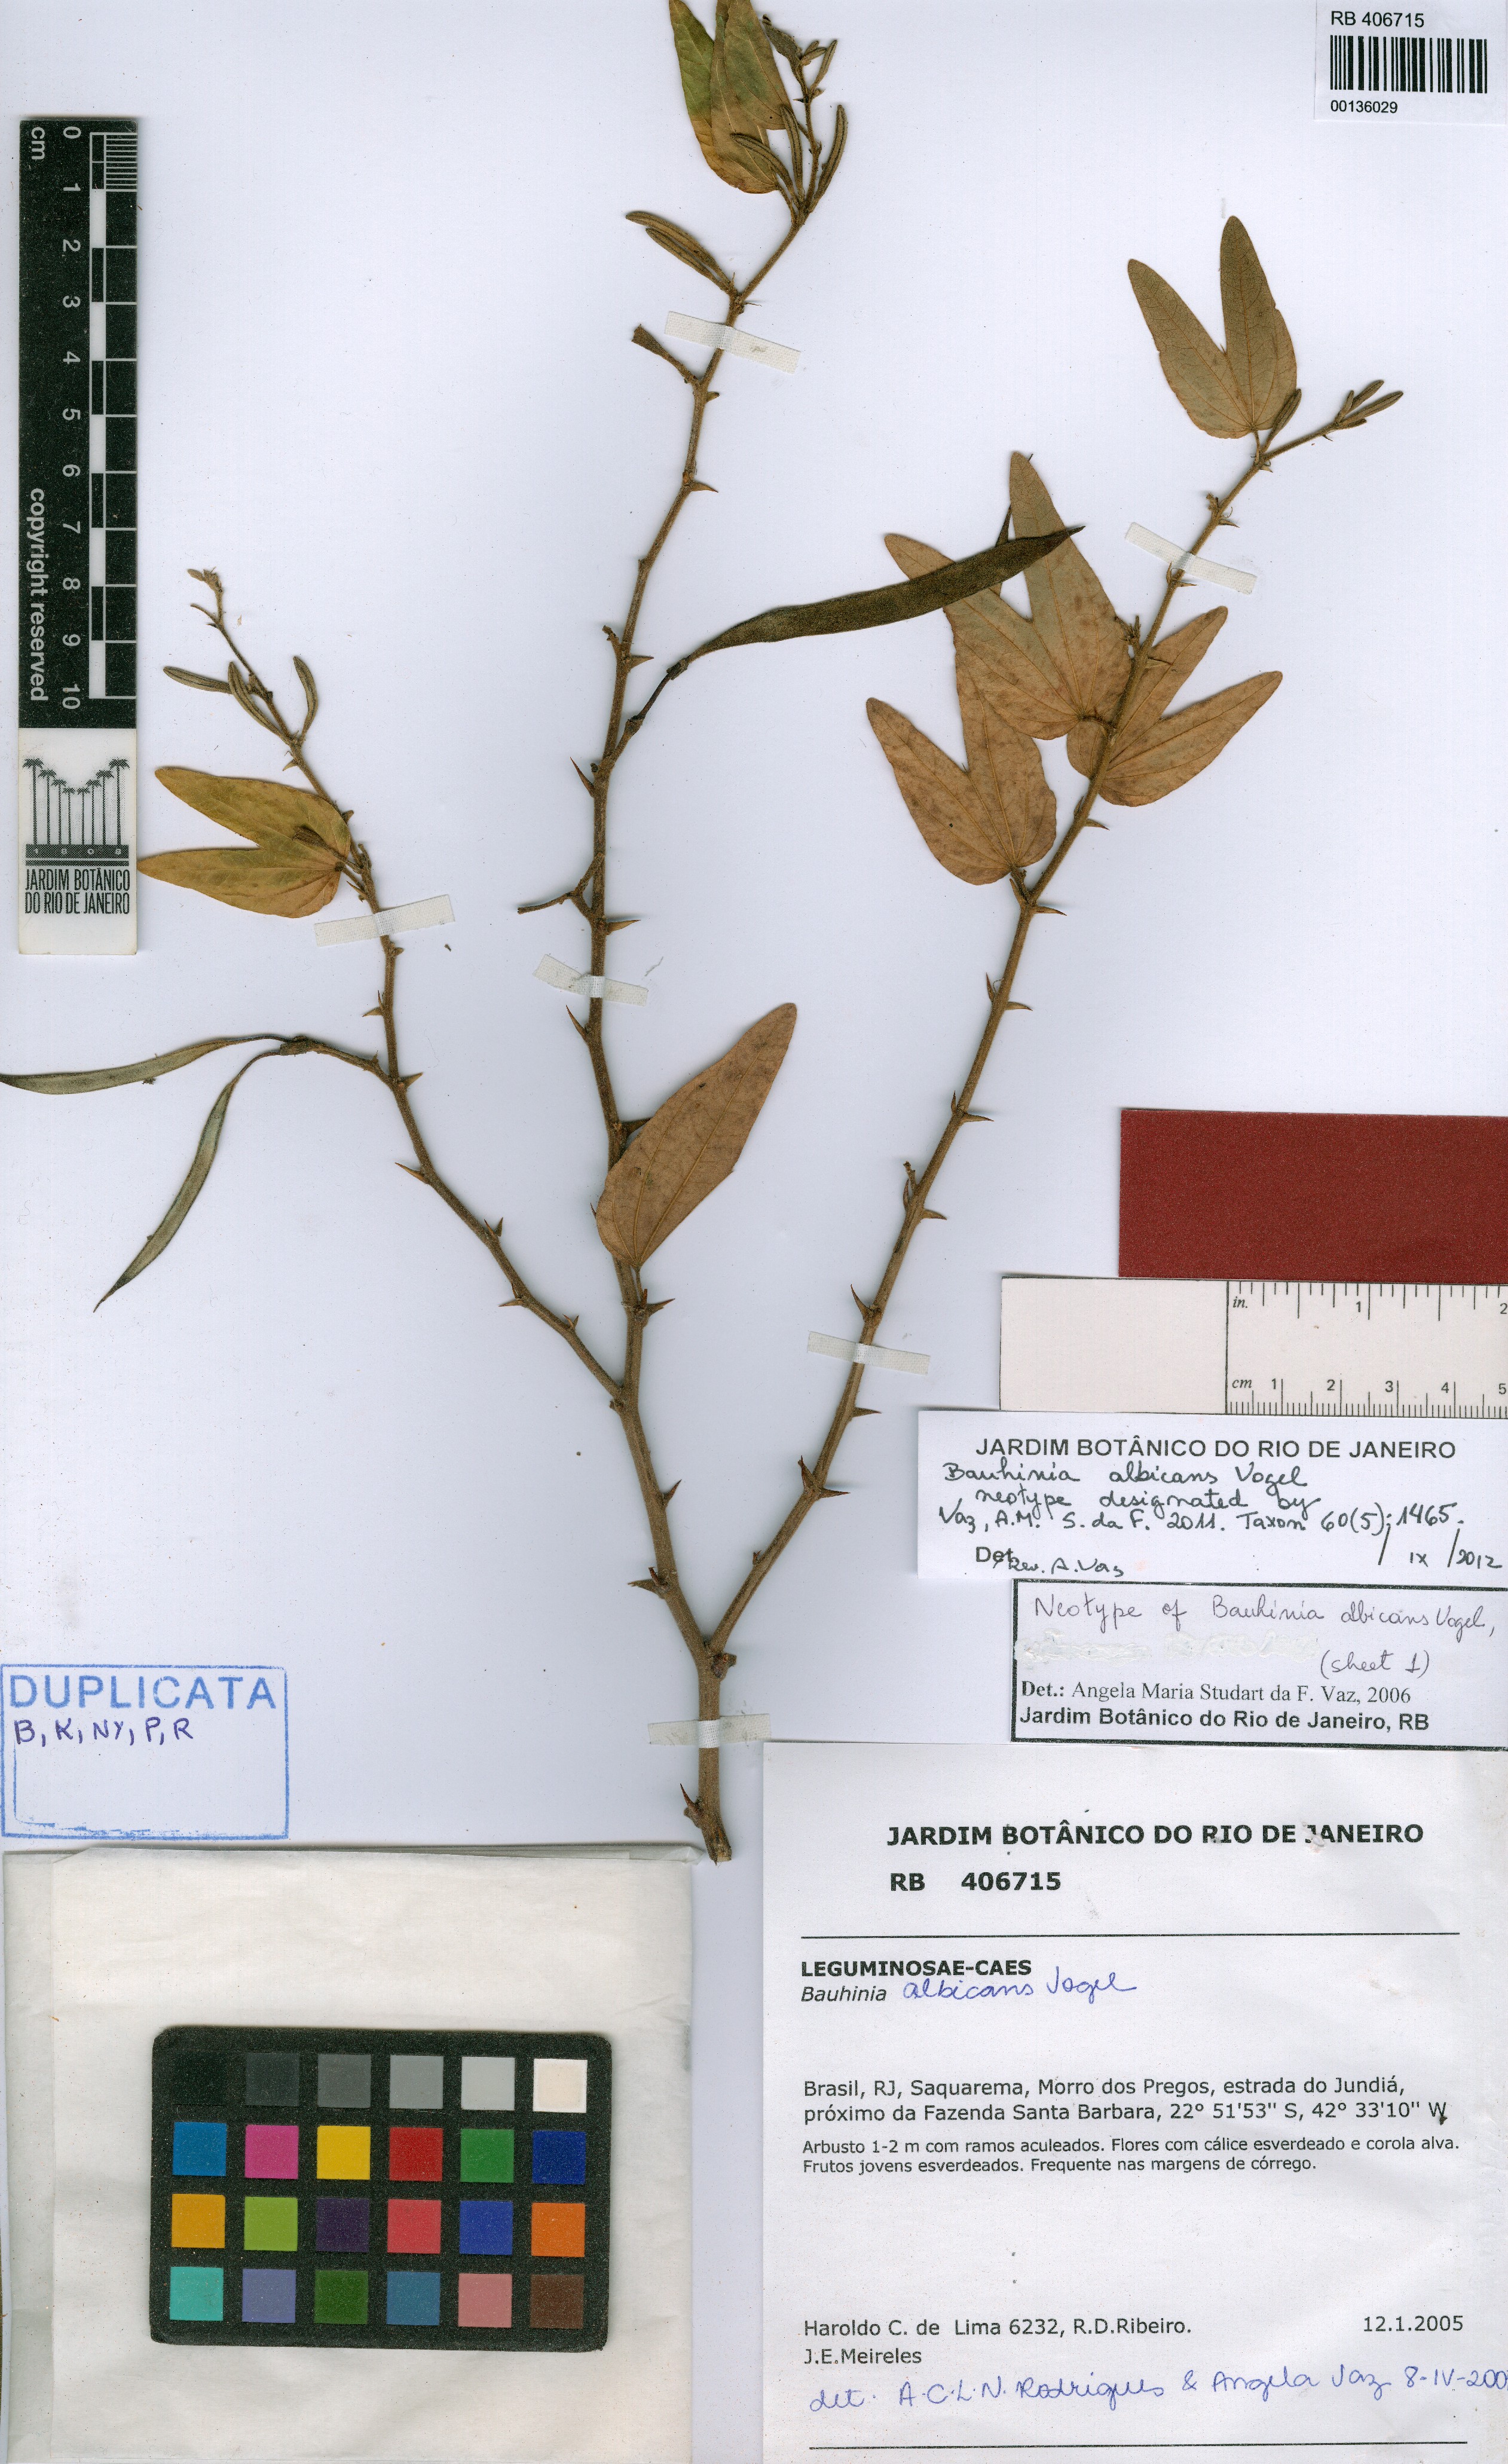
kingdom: Plantae
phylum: Tracheophyta
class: Magnoliopsida
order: Fabales
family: Fabaceae
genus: Bauhinia
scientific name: Bauhinia albicans
